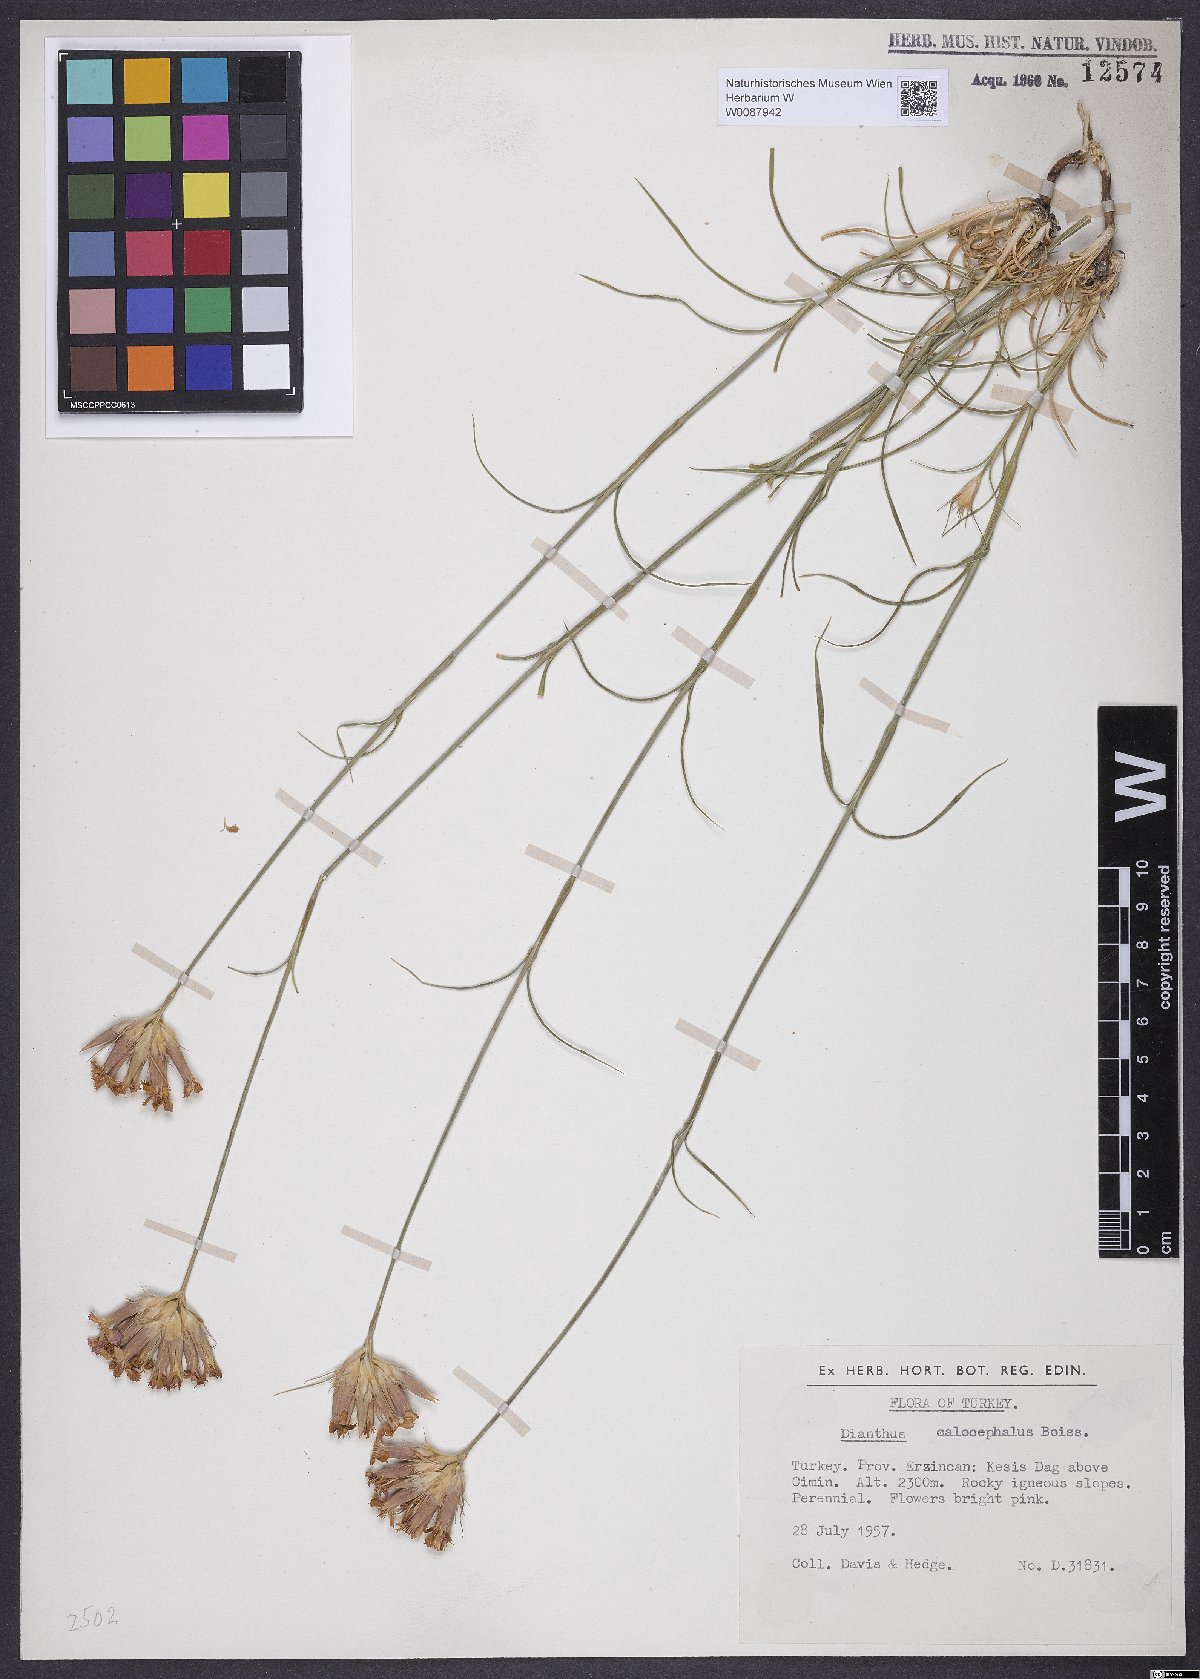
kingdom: Plantae
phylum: Tracheophyta
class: Magnoliopsida
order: Caryophyllales
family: Caryophyllaceae
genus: Dianthus
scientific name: Dianthus cruentus
